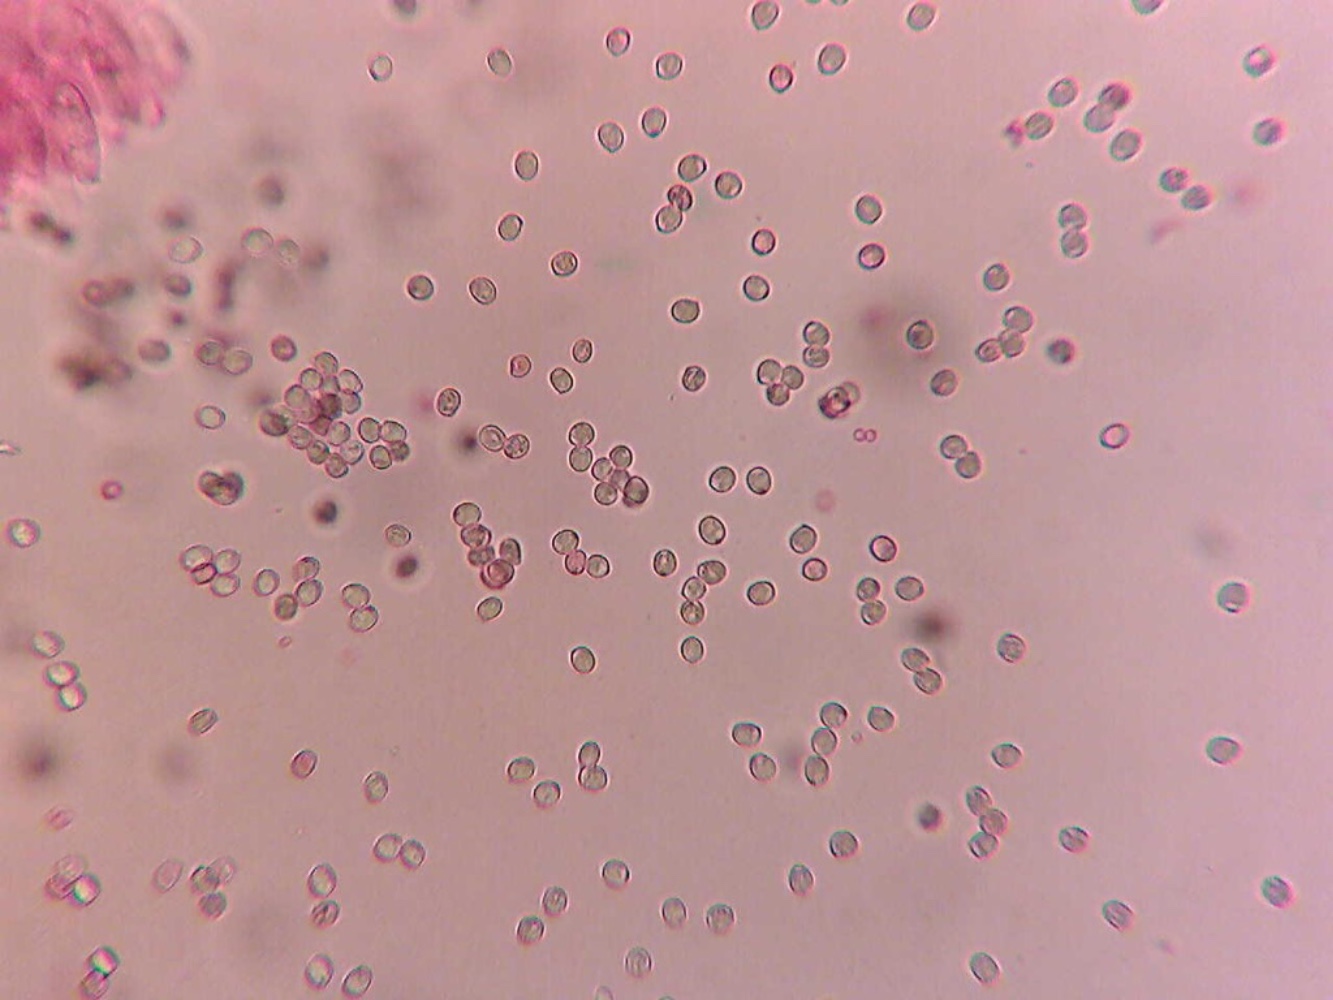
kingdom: Fungi
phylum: Basidiomycota
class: Agaricomycetes
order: Agaricales
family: Pluteaceae
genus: Pluteus
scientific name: Pluteus
